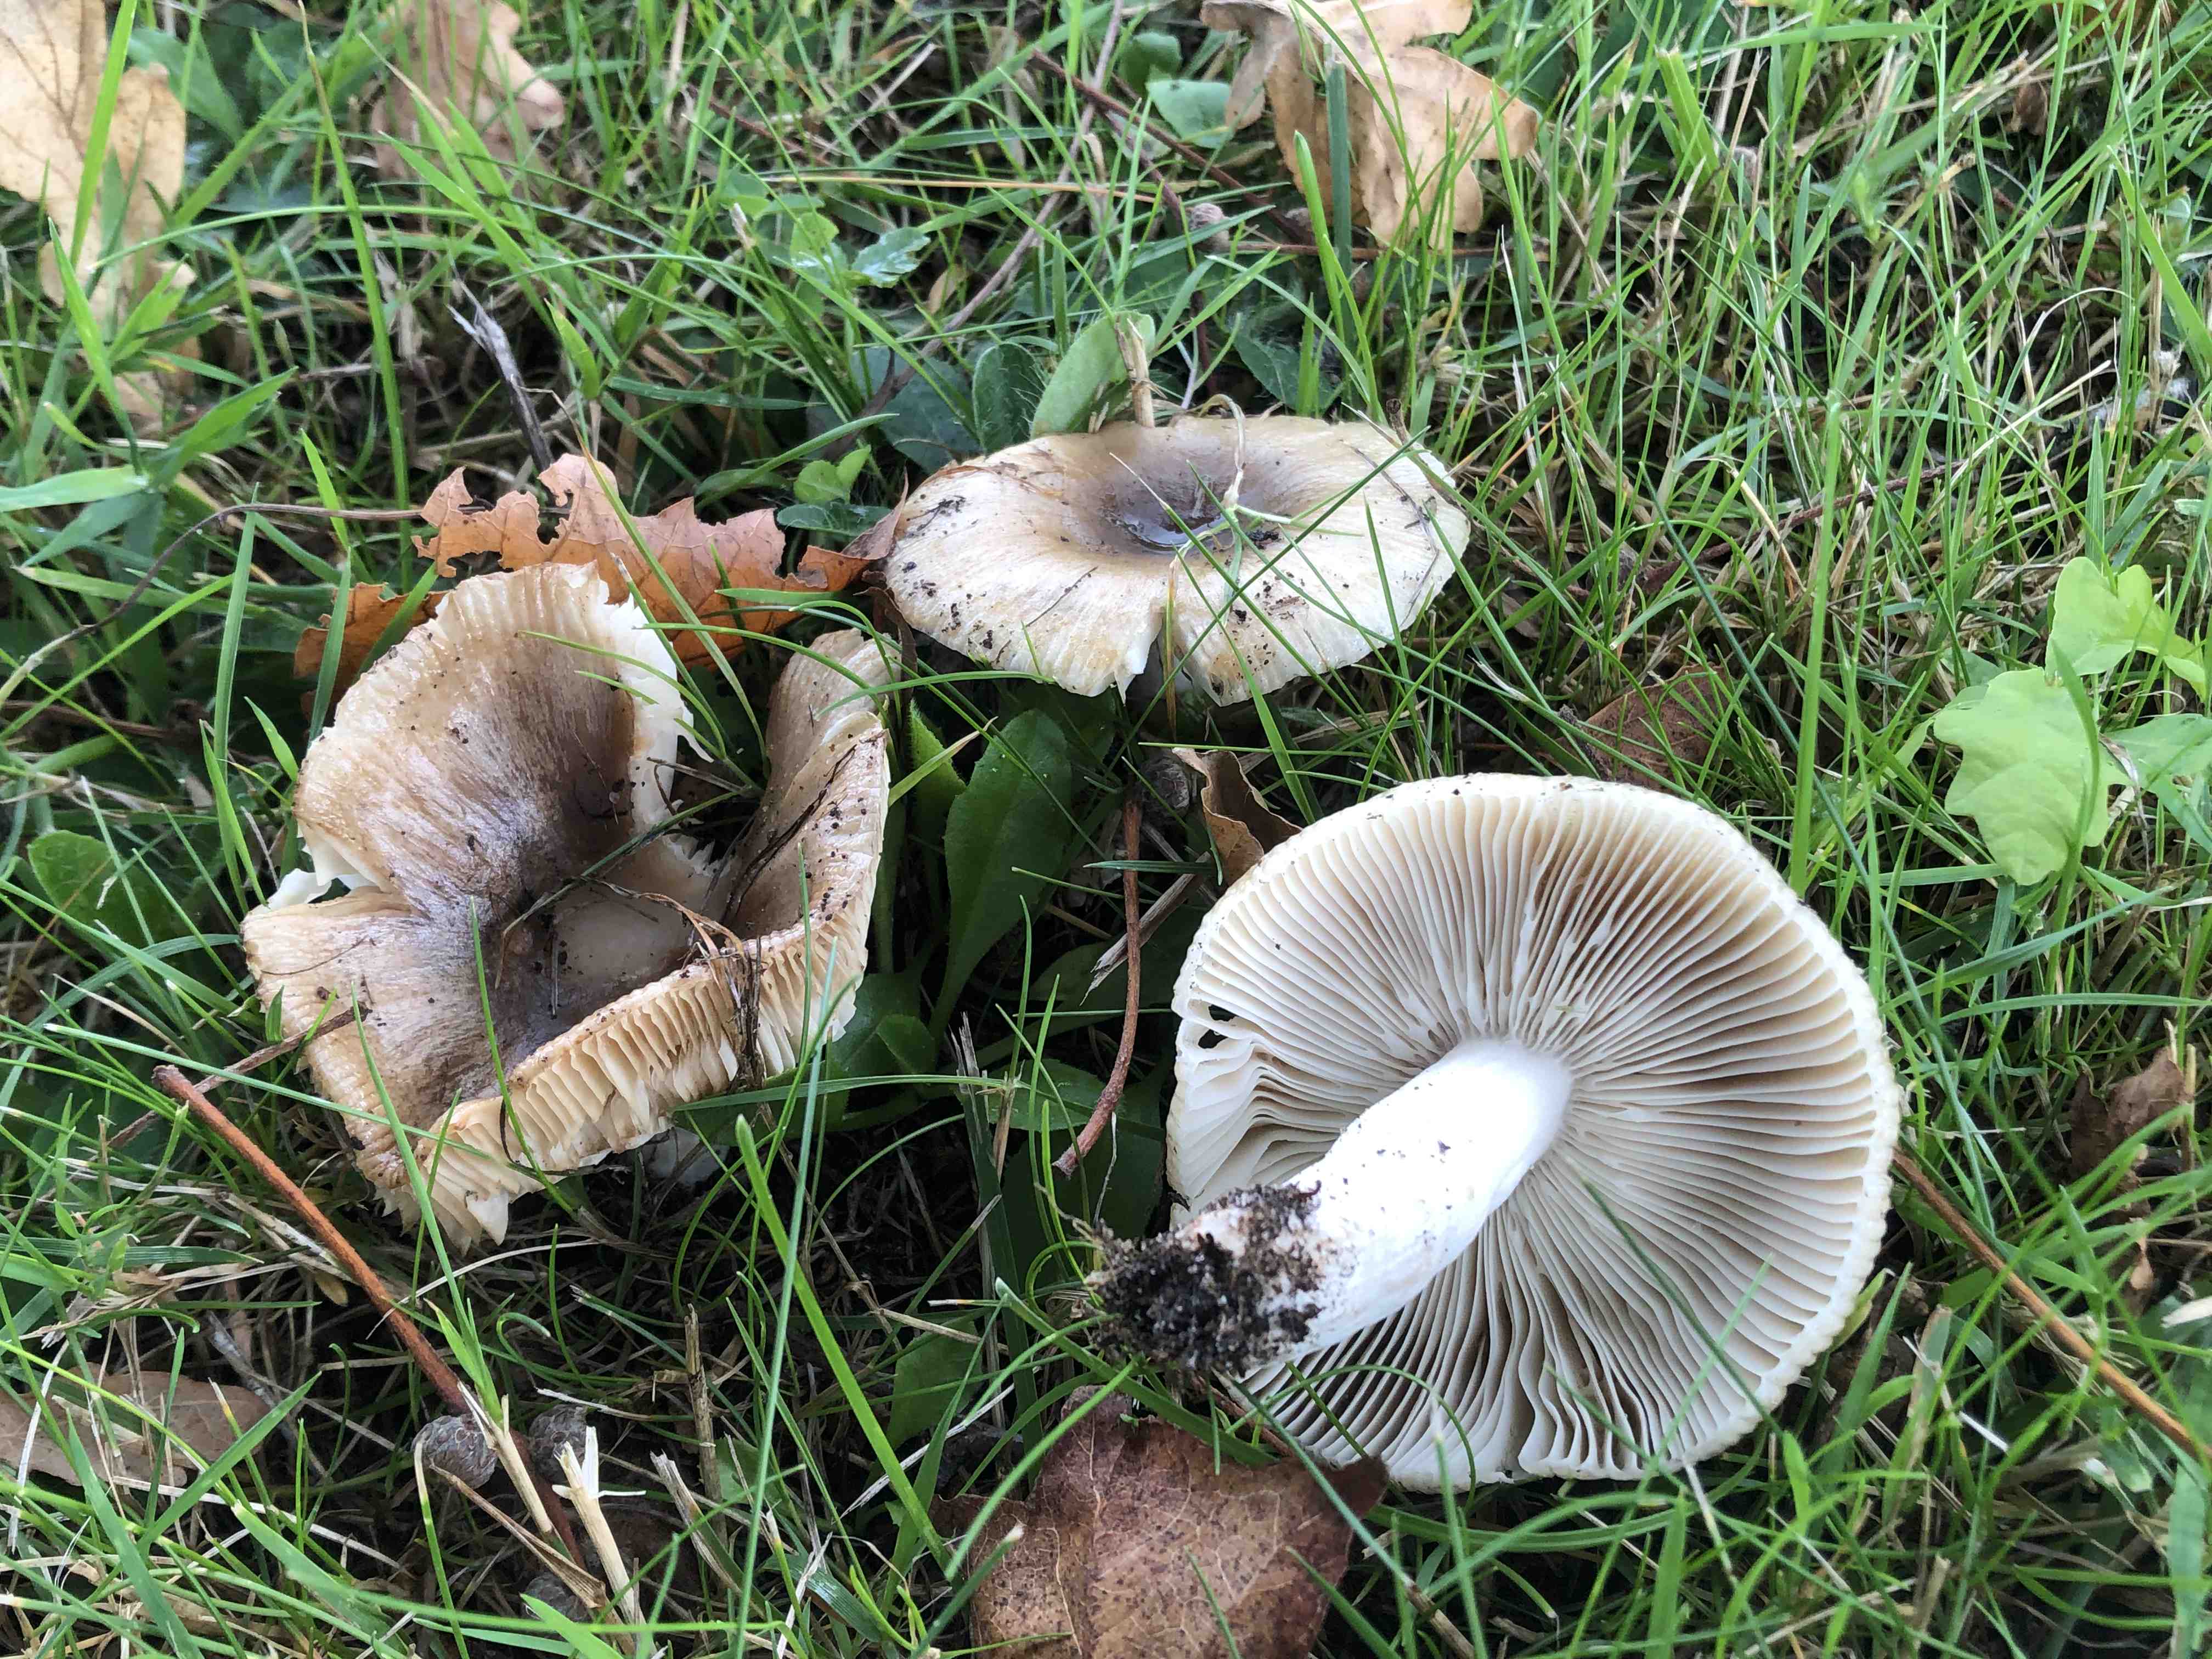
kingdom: Fungi
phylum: Basidiomycota
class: Agaricomycetes
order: Russulales
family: Russulaceae
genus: Russula
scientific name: Russula recondita
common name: mild kam-skørhat
